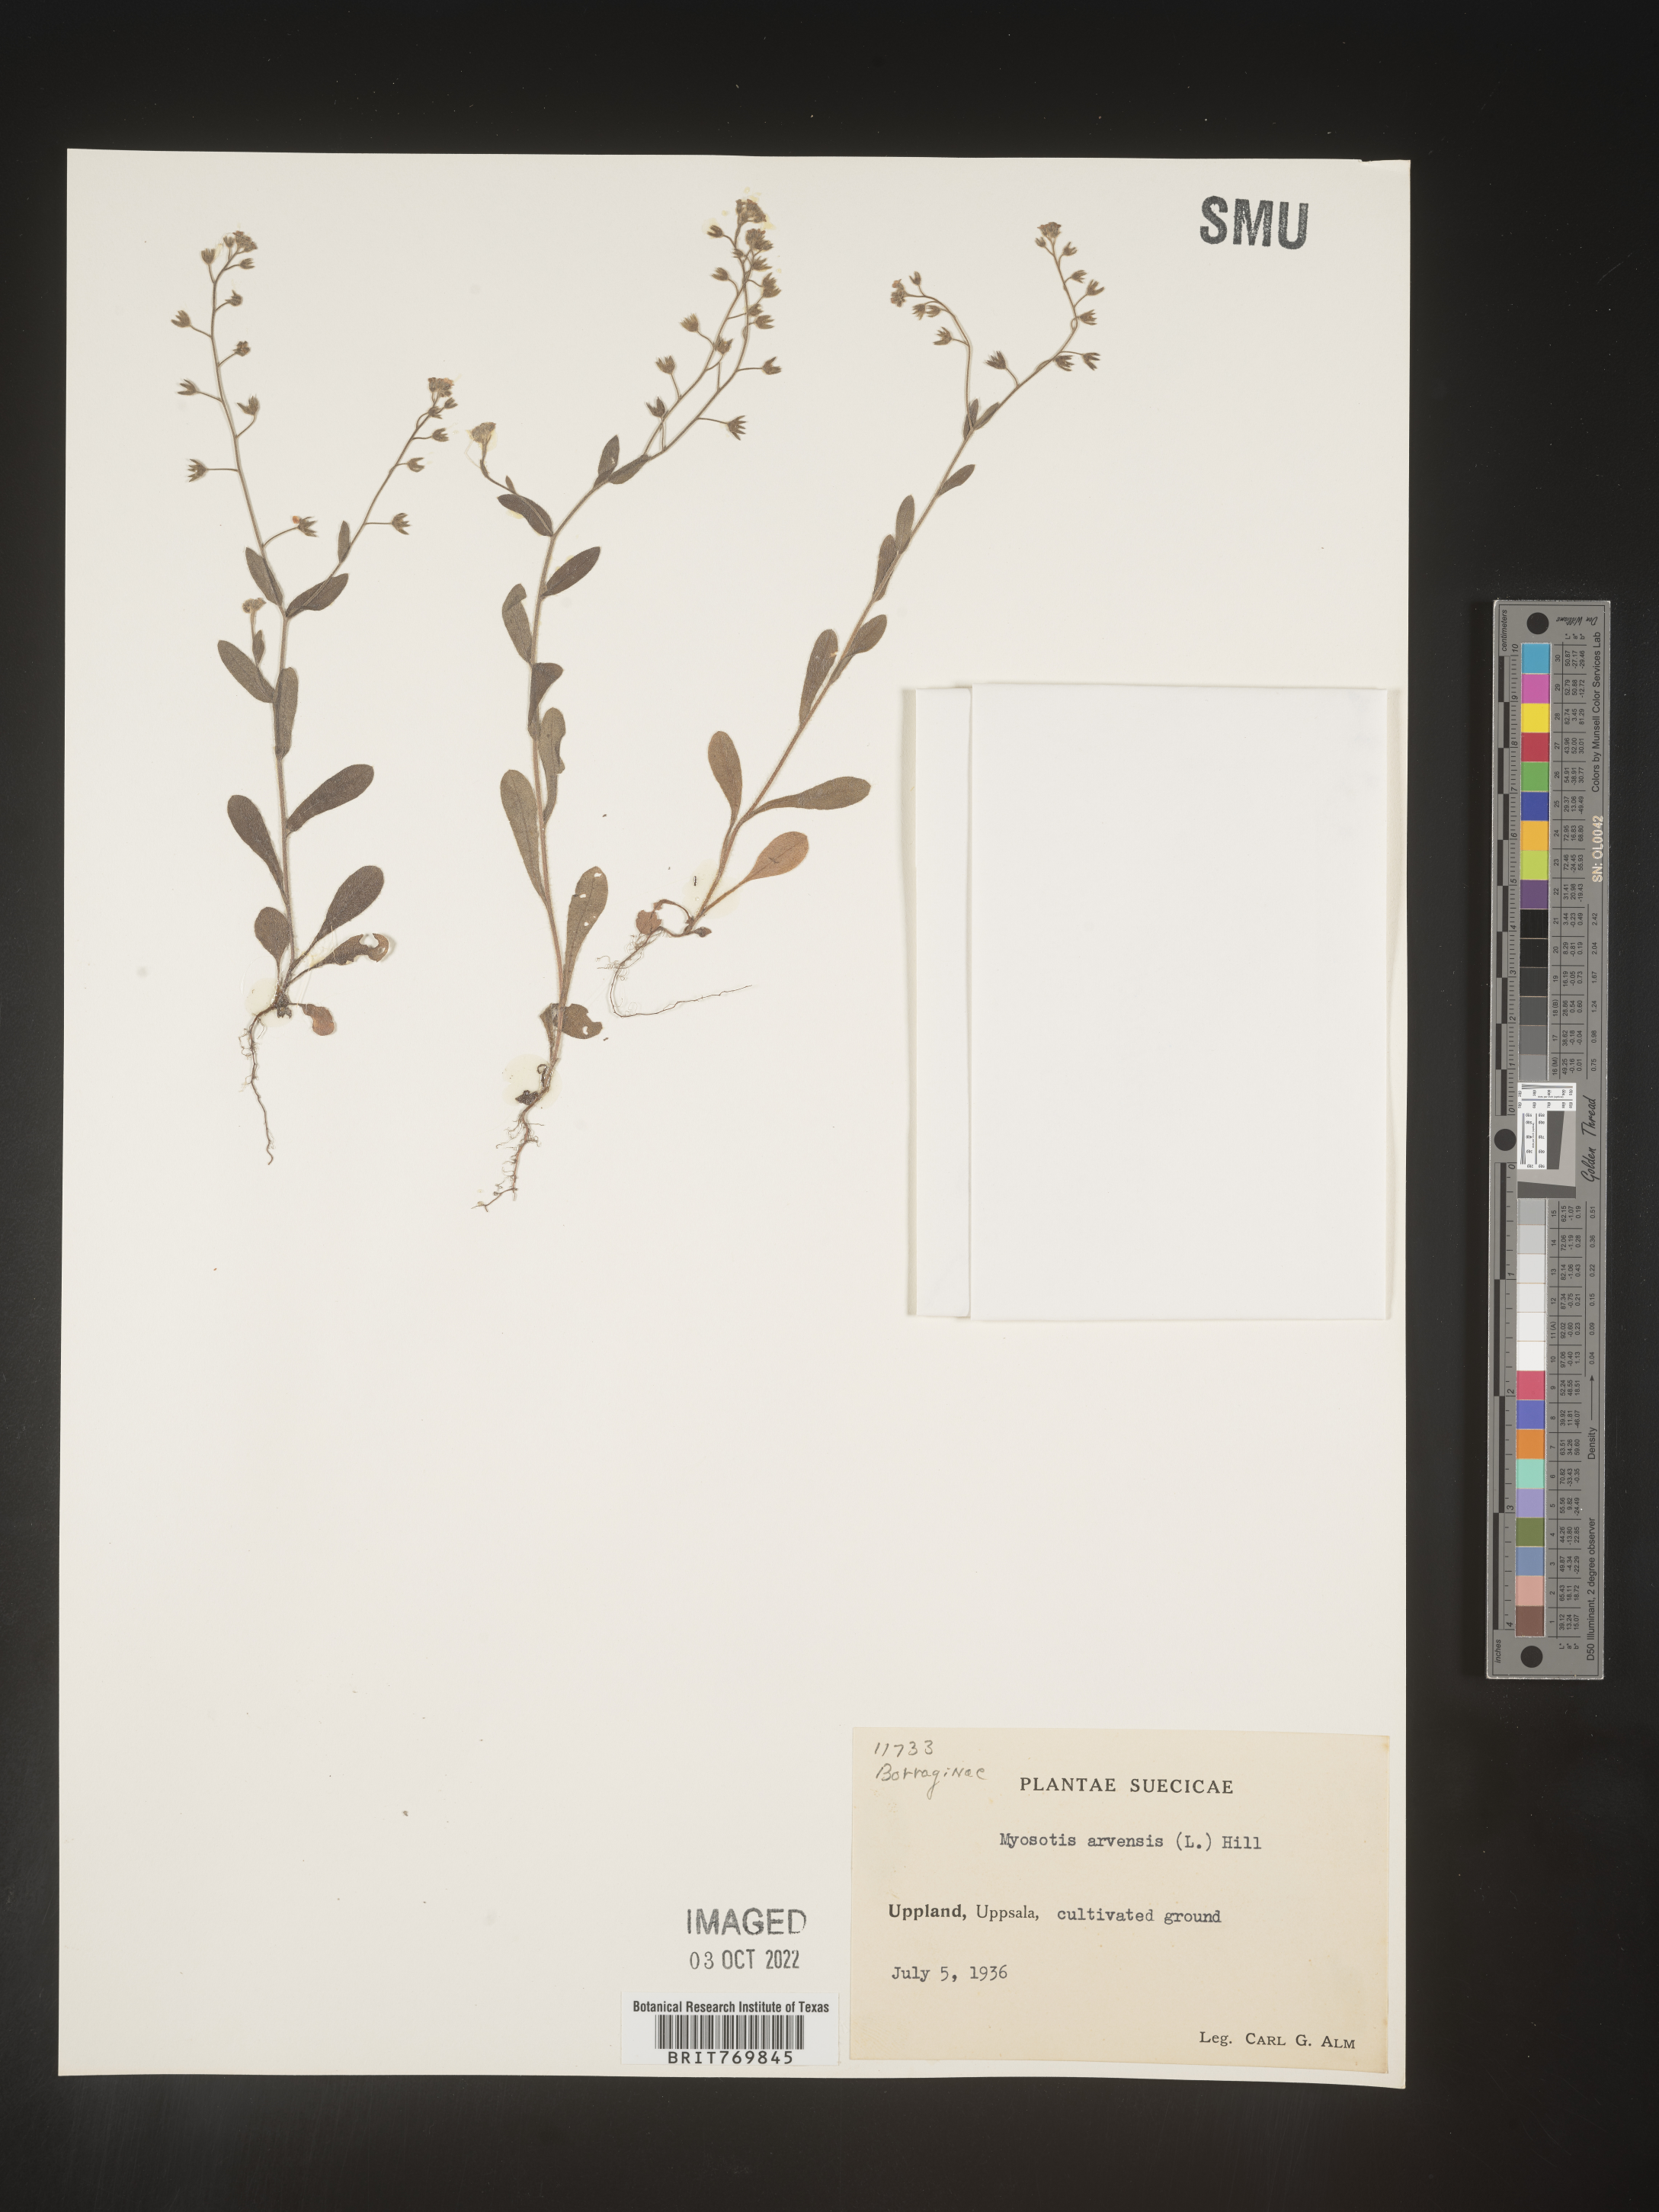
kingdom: Plantae
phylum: Tracheophyta
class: Magnoliopsida
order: Boraginales
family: Boraginaceae
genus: Myosotis
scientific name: Myosotis
